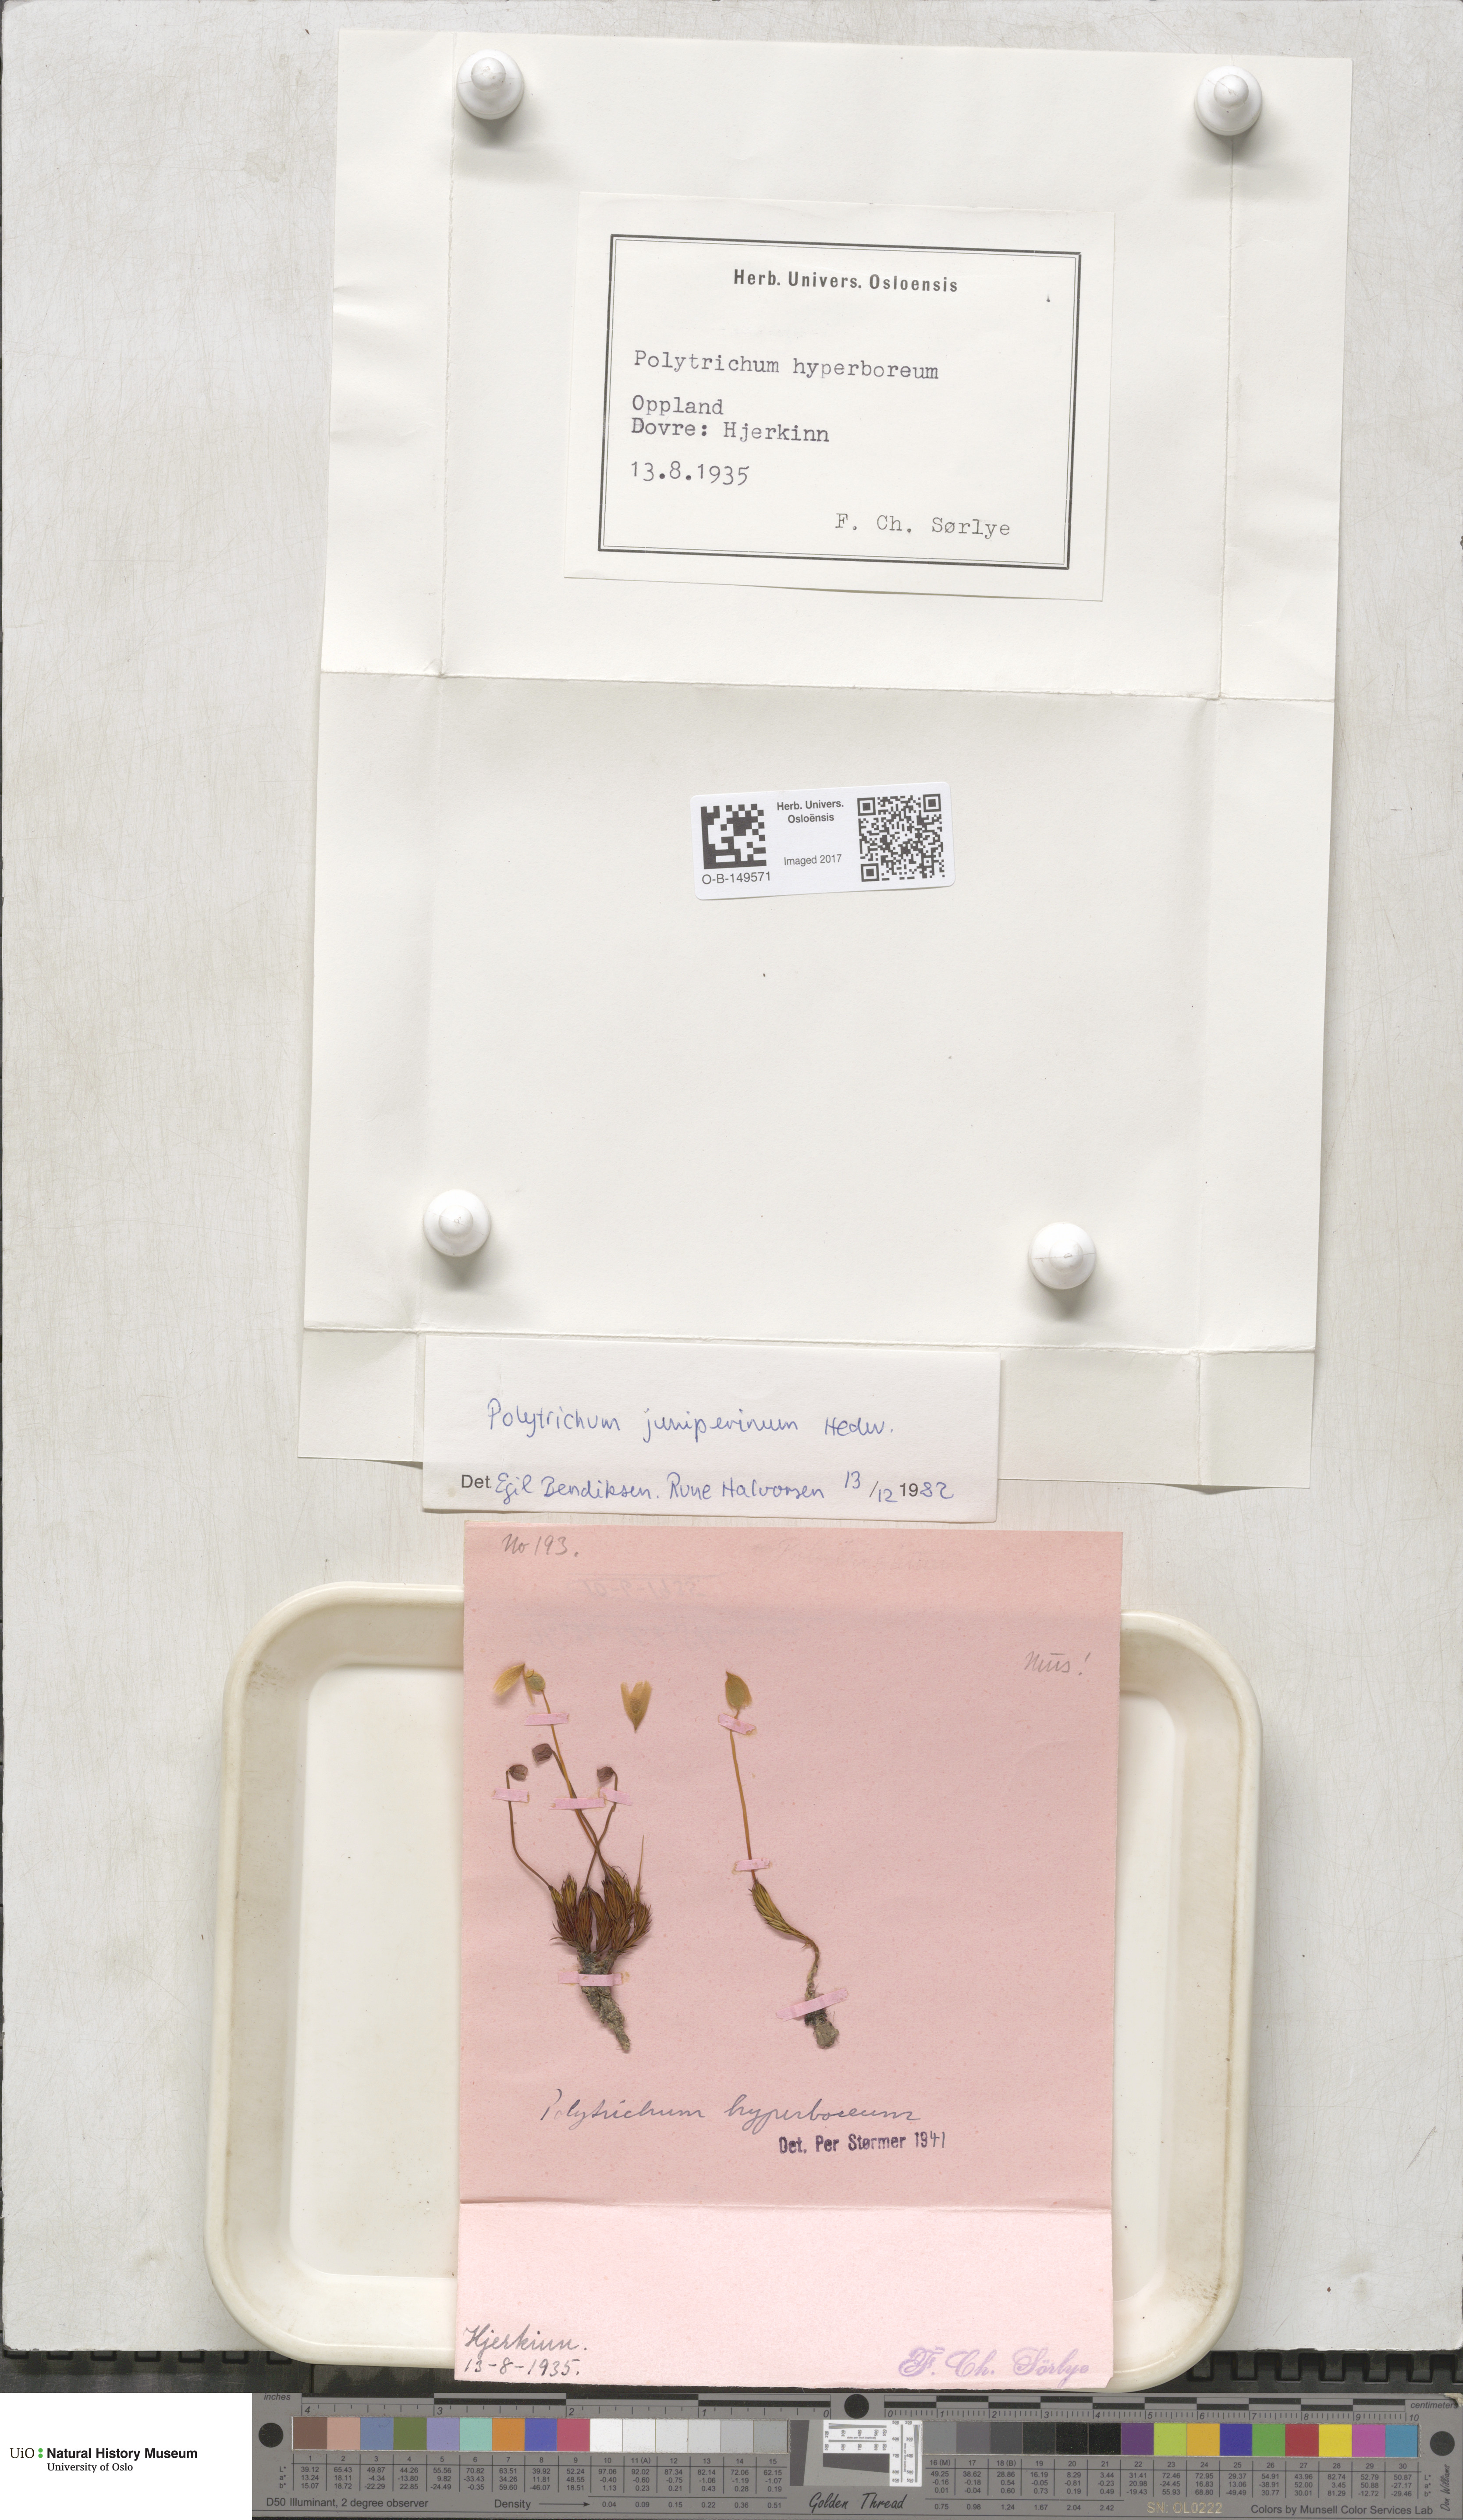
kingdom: Plantae
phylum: Bryophyta
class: Polytrichopsida
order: Polytrichales
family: Polytrichaceae
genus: Polytrichum
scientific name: Polytrichum juniperinum
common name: Juniper haircap moss
